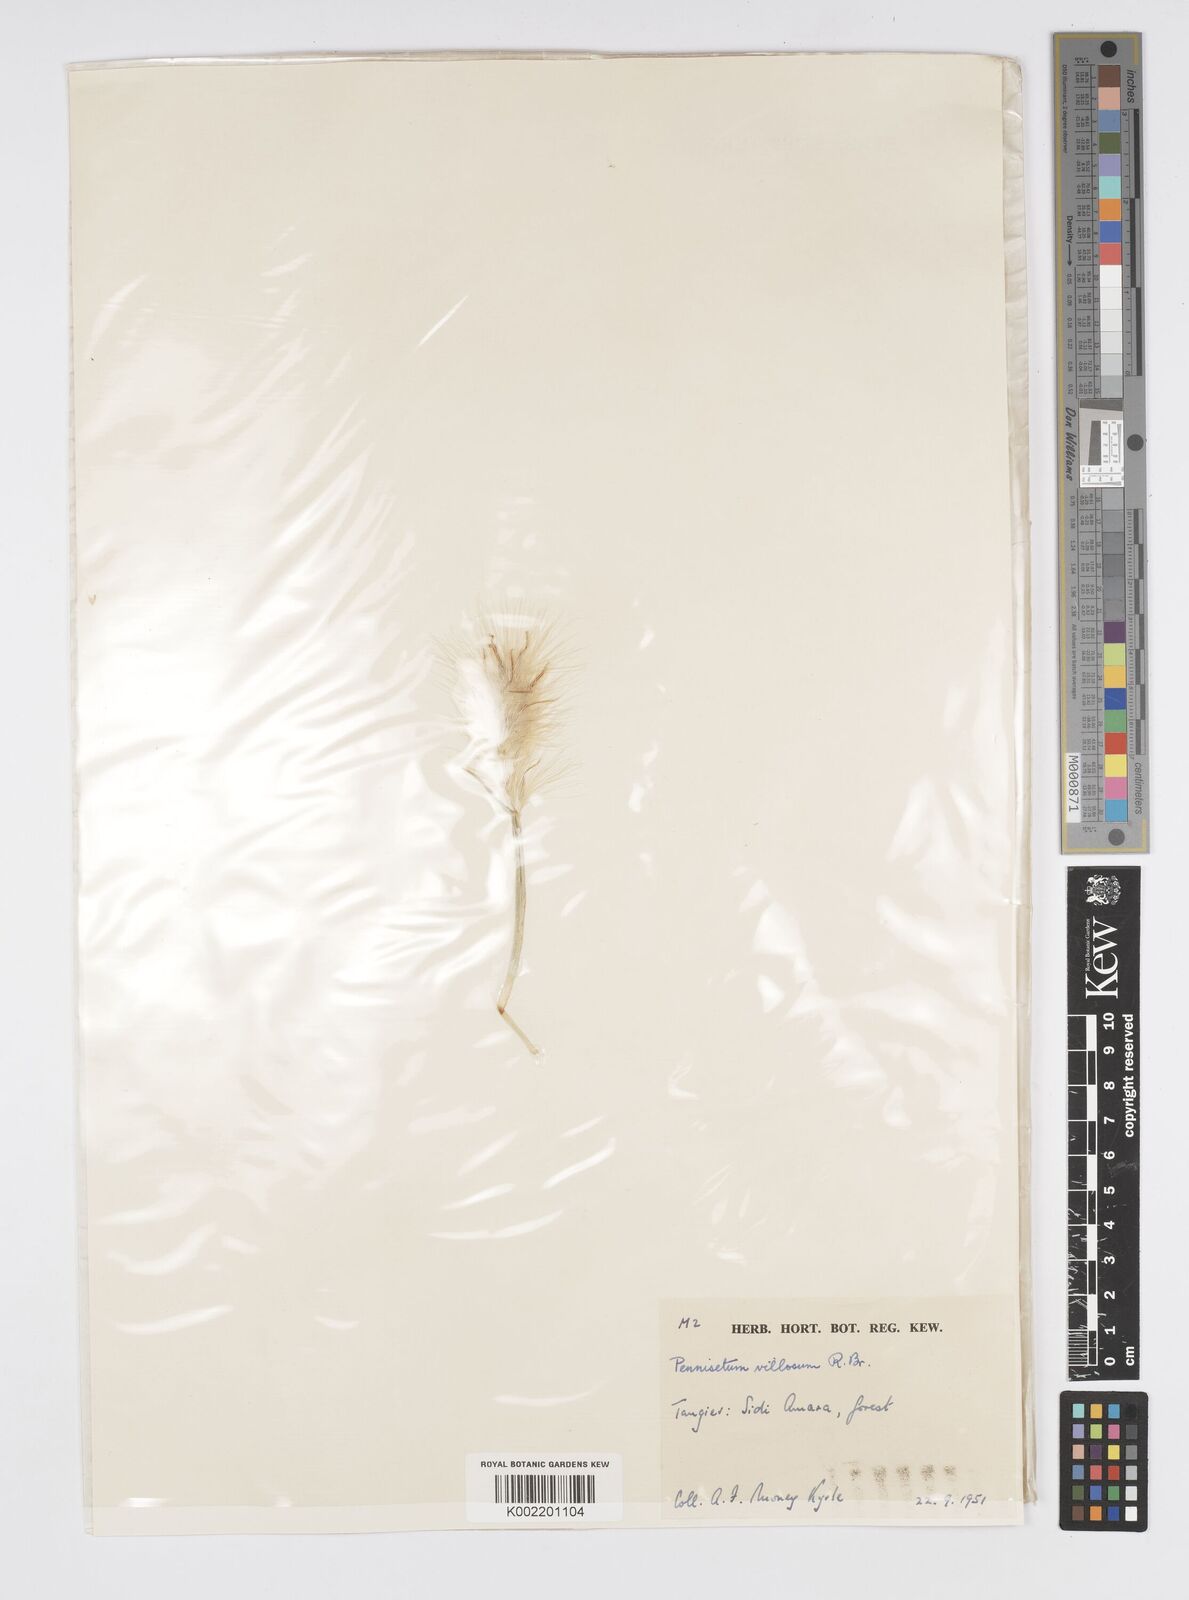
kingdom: Plantae
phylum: Tracheophyta
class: Liliopsida
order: Poales
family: Poaceae
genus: Cenchrus
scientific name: Cenchrus longisetus
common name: Feathertop
